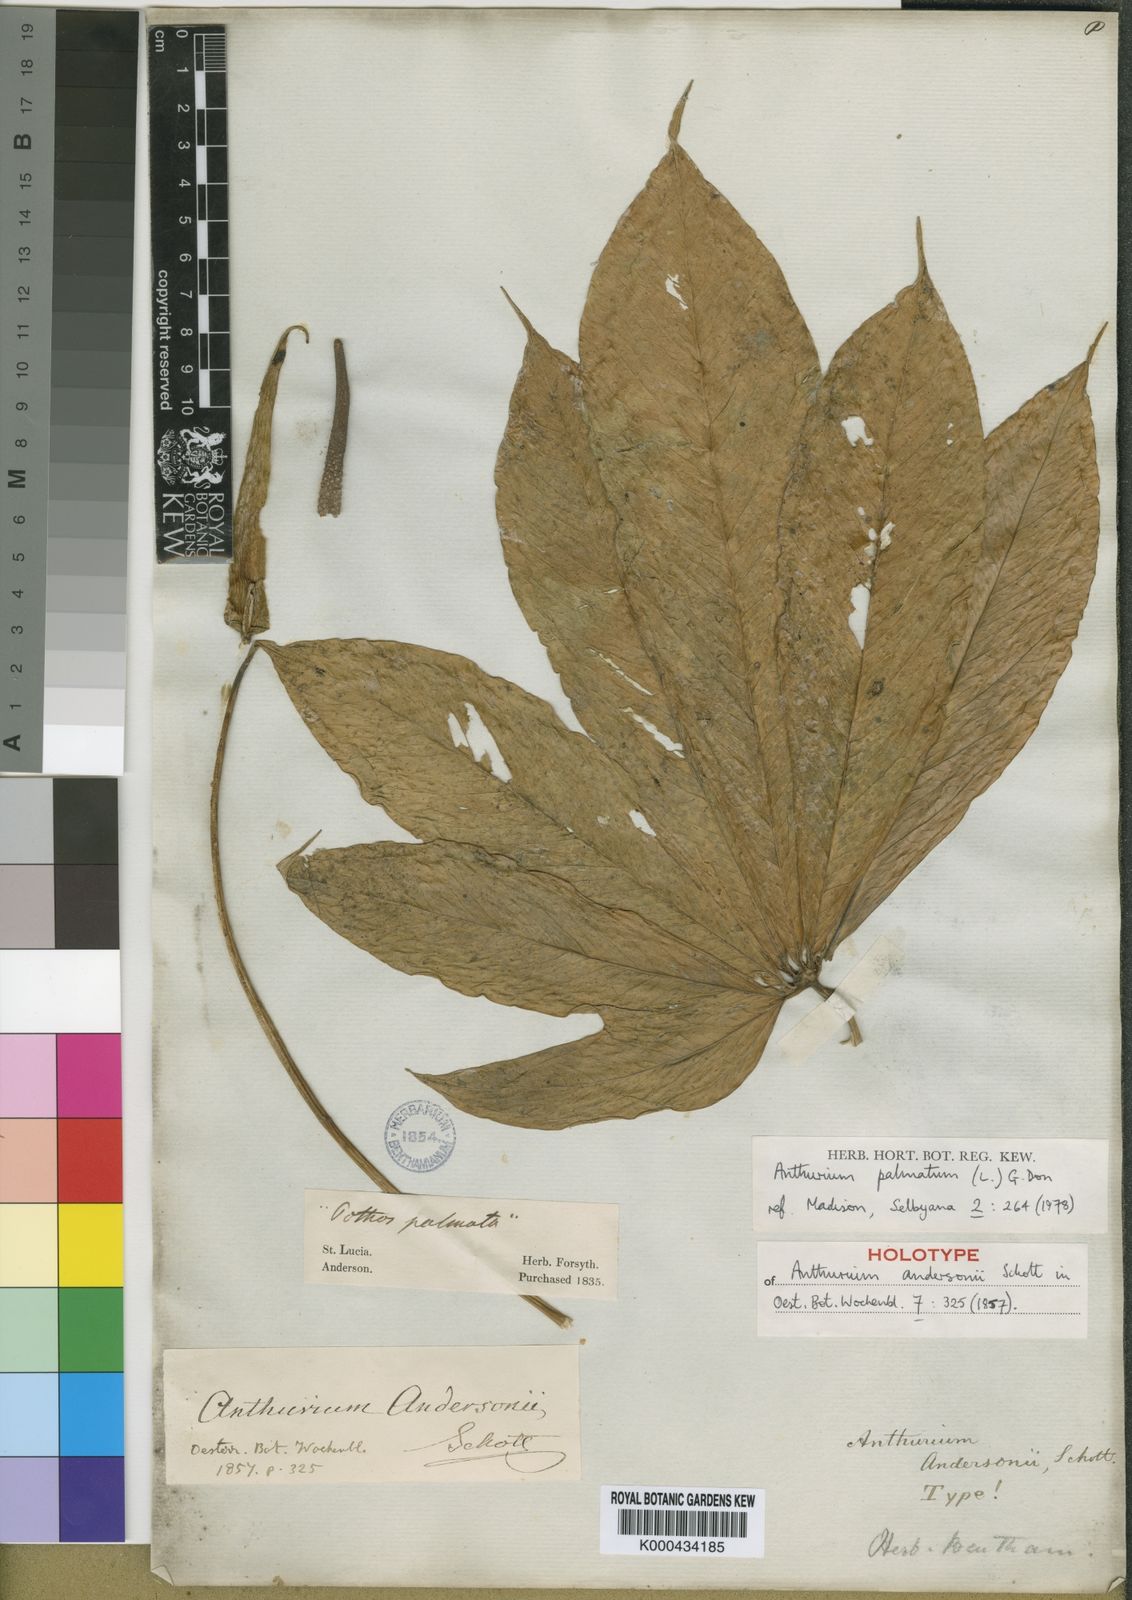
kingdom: Plantae
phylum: Tracheophyta
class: Liliopsida
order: Alismatales
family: Araceae
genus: Anthurium
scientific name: Anthurium
